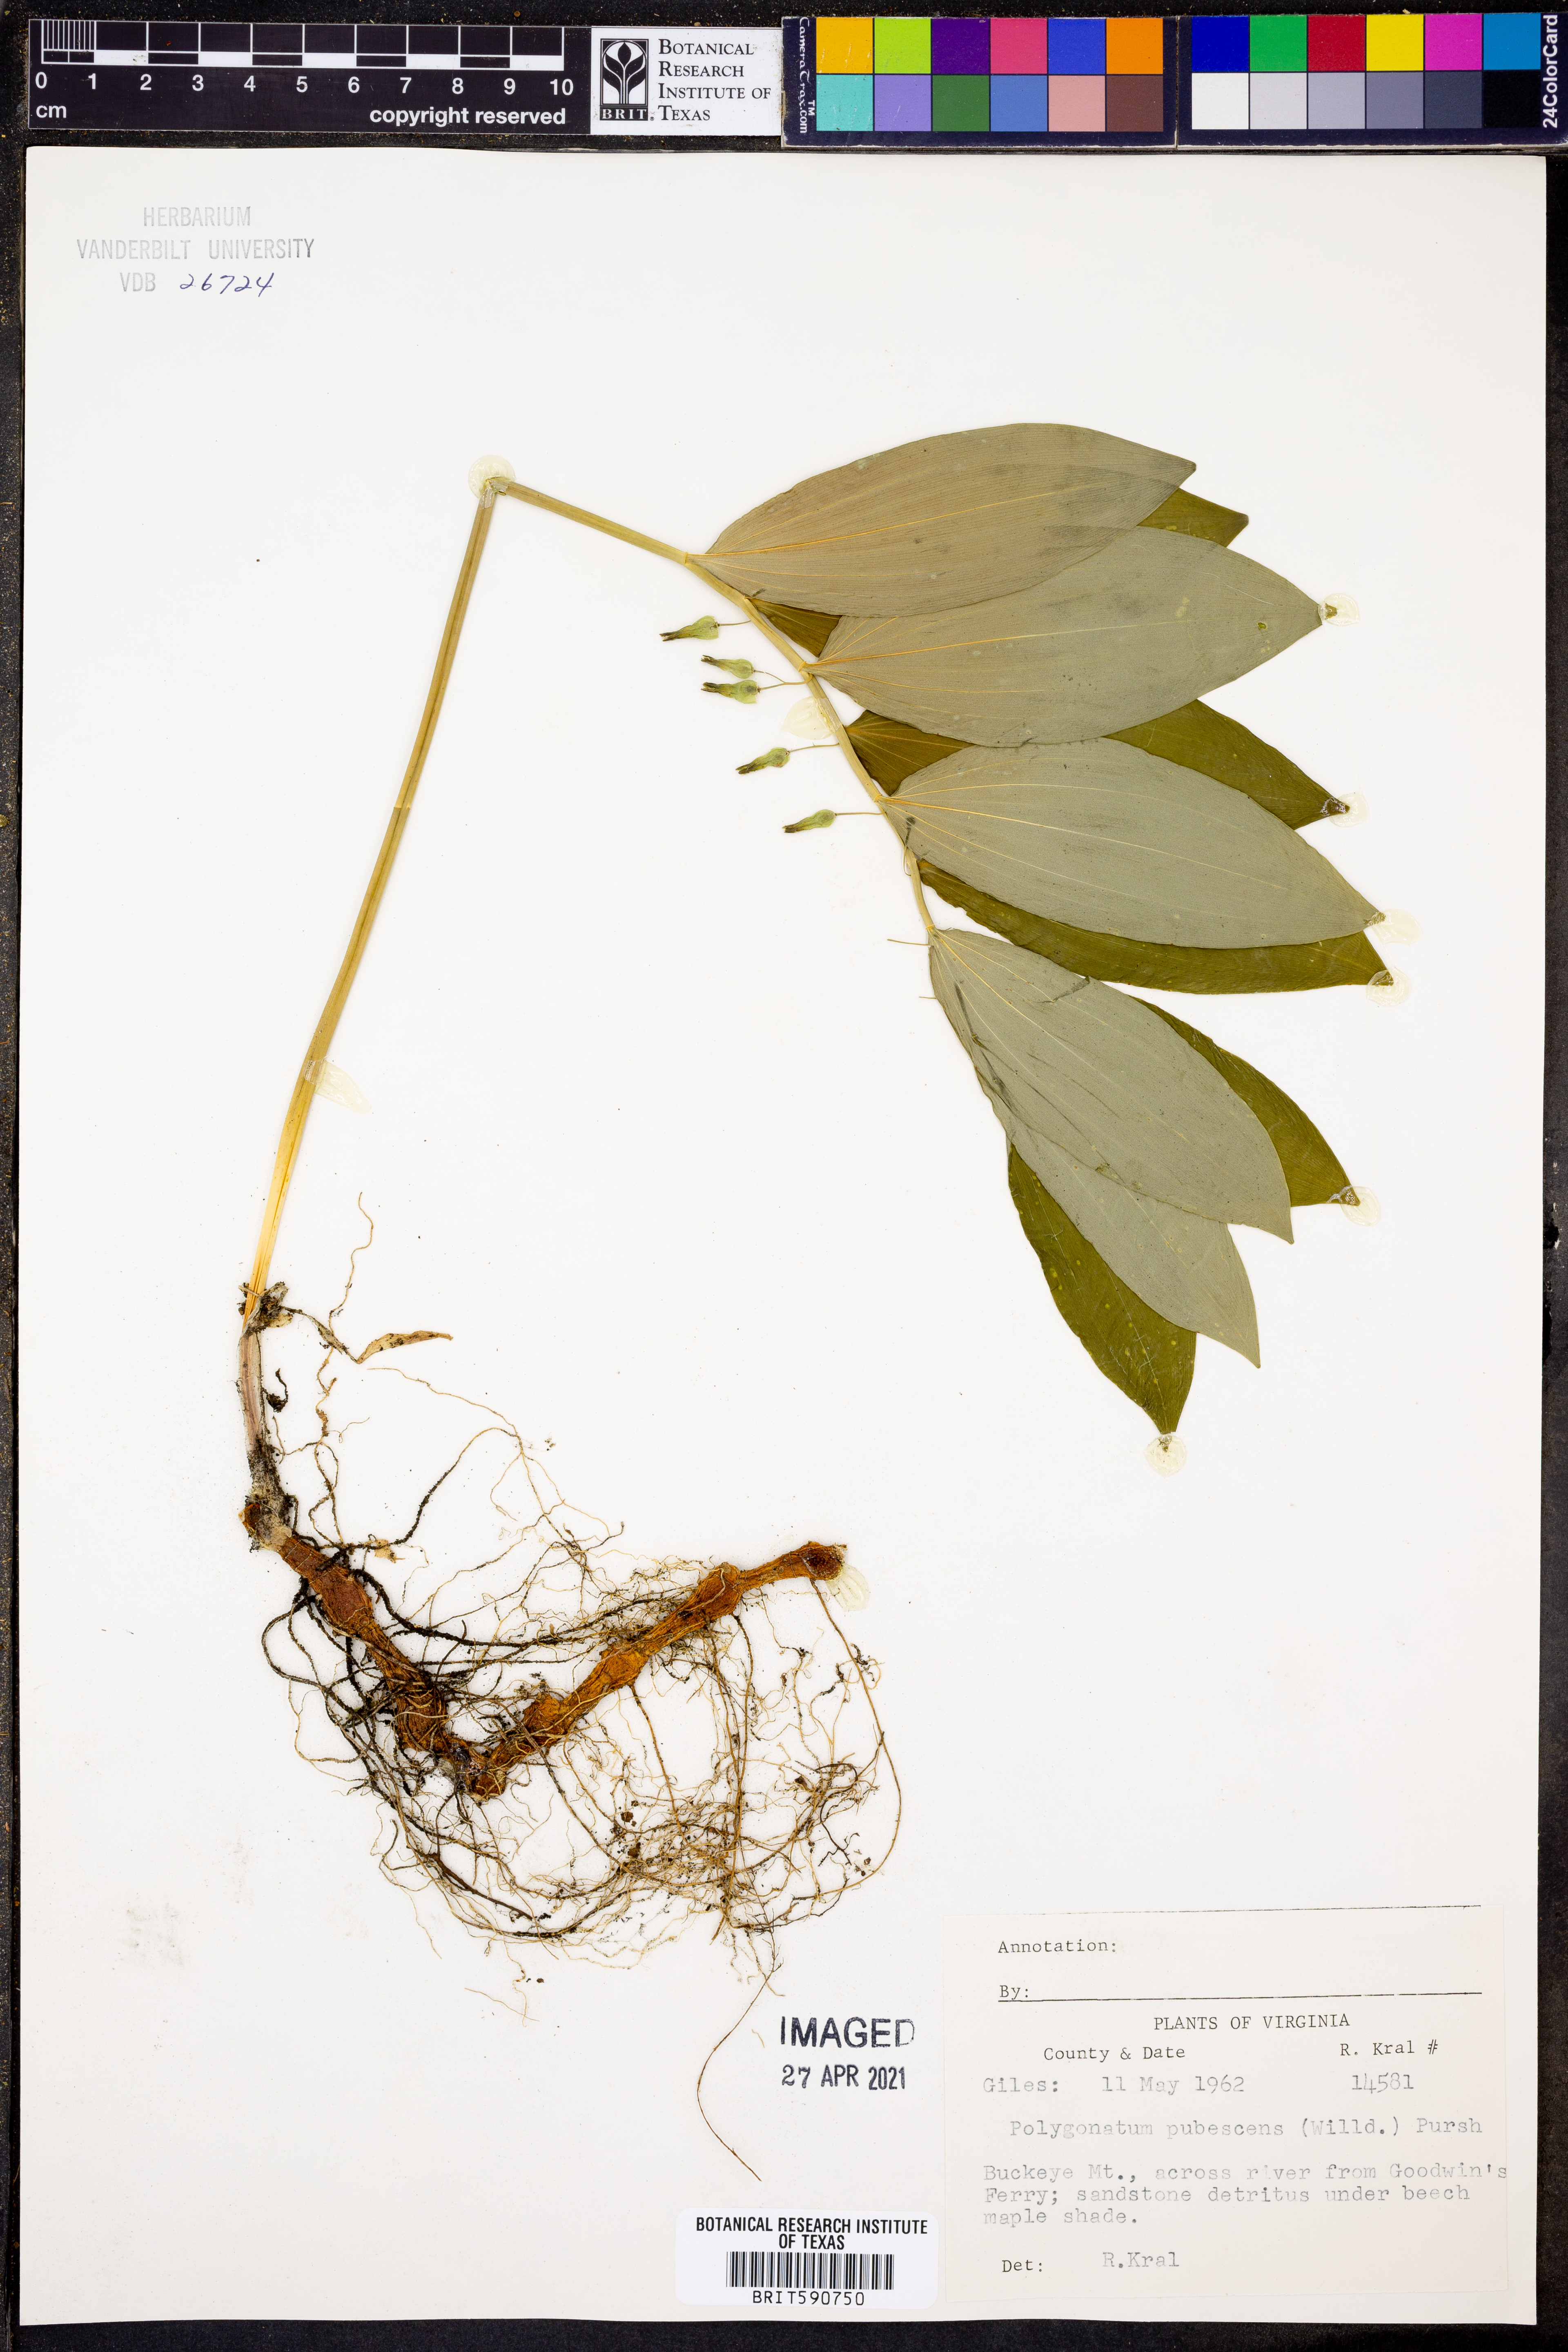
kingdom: Plantae
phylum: Tracheophyta
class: Liliopsida
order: Asparagales
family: Asparagaceae
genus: Polygonatum
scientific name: Polygonatum pubescens
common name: Downy solomon's seal
